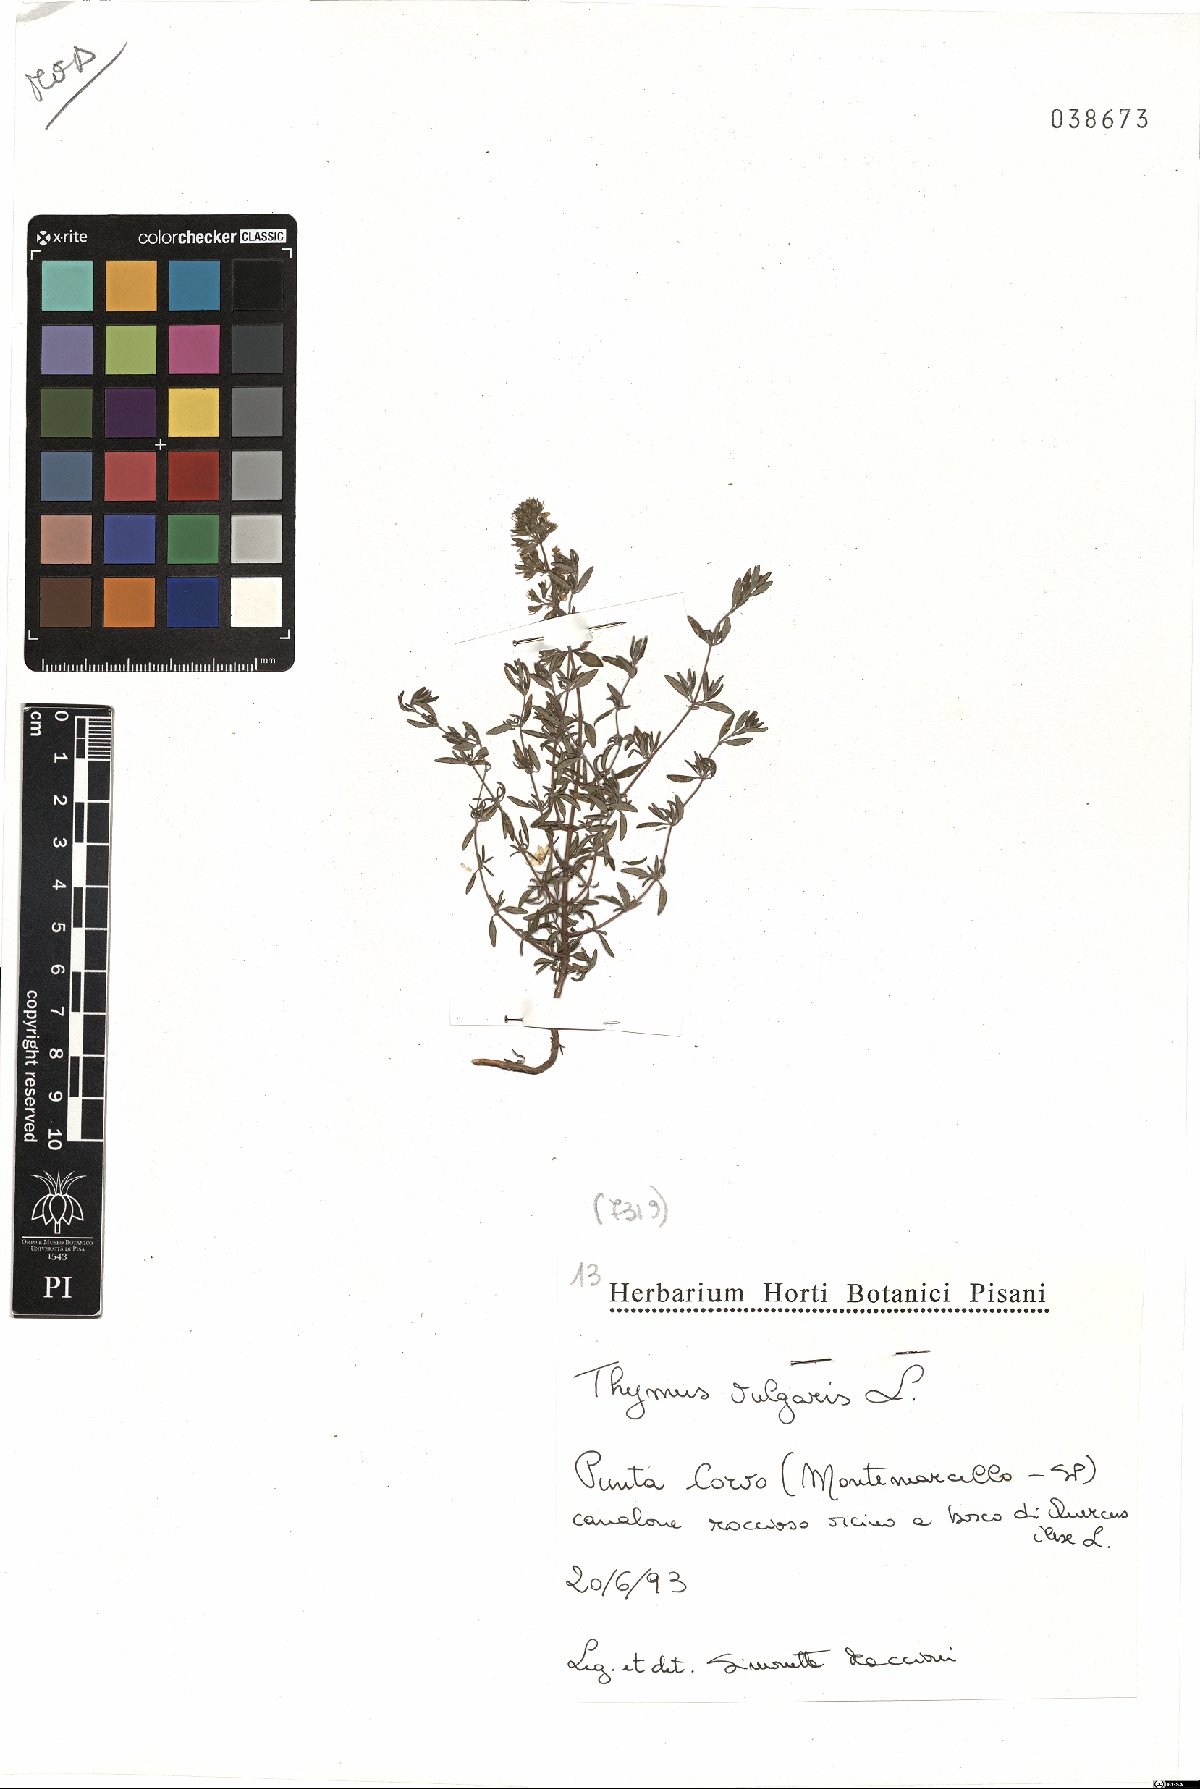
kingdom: Plantae
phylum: Tracheophyta
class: Magnoliopsida
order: Lamiales
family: Lamiaceae
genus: Thymus
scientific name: Thymus vulgaris
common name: Garden thyme
